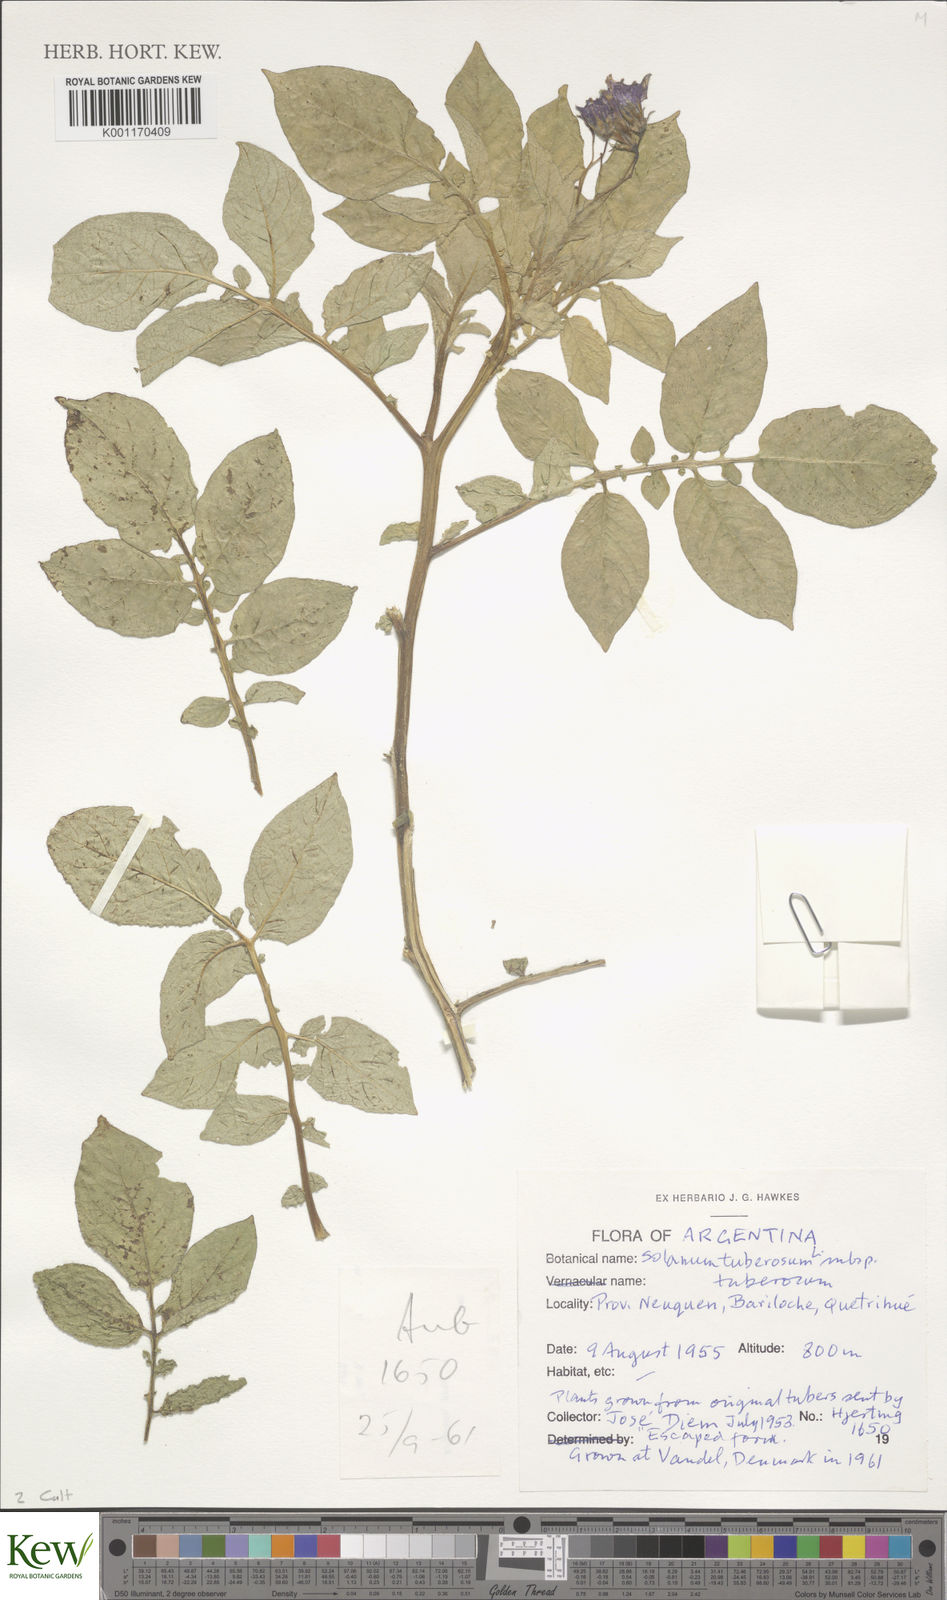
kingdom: Plantae
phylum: Tracheophyta
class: Magnoliopsida
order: Solanales
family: Solanaceae
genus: Solanum
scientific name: Solanum tuberosum
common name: Potato
